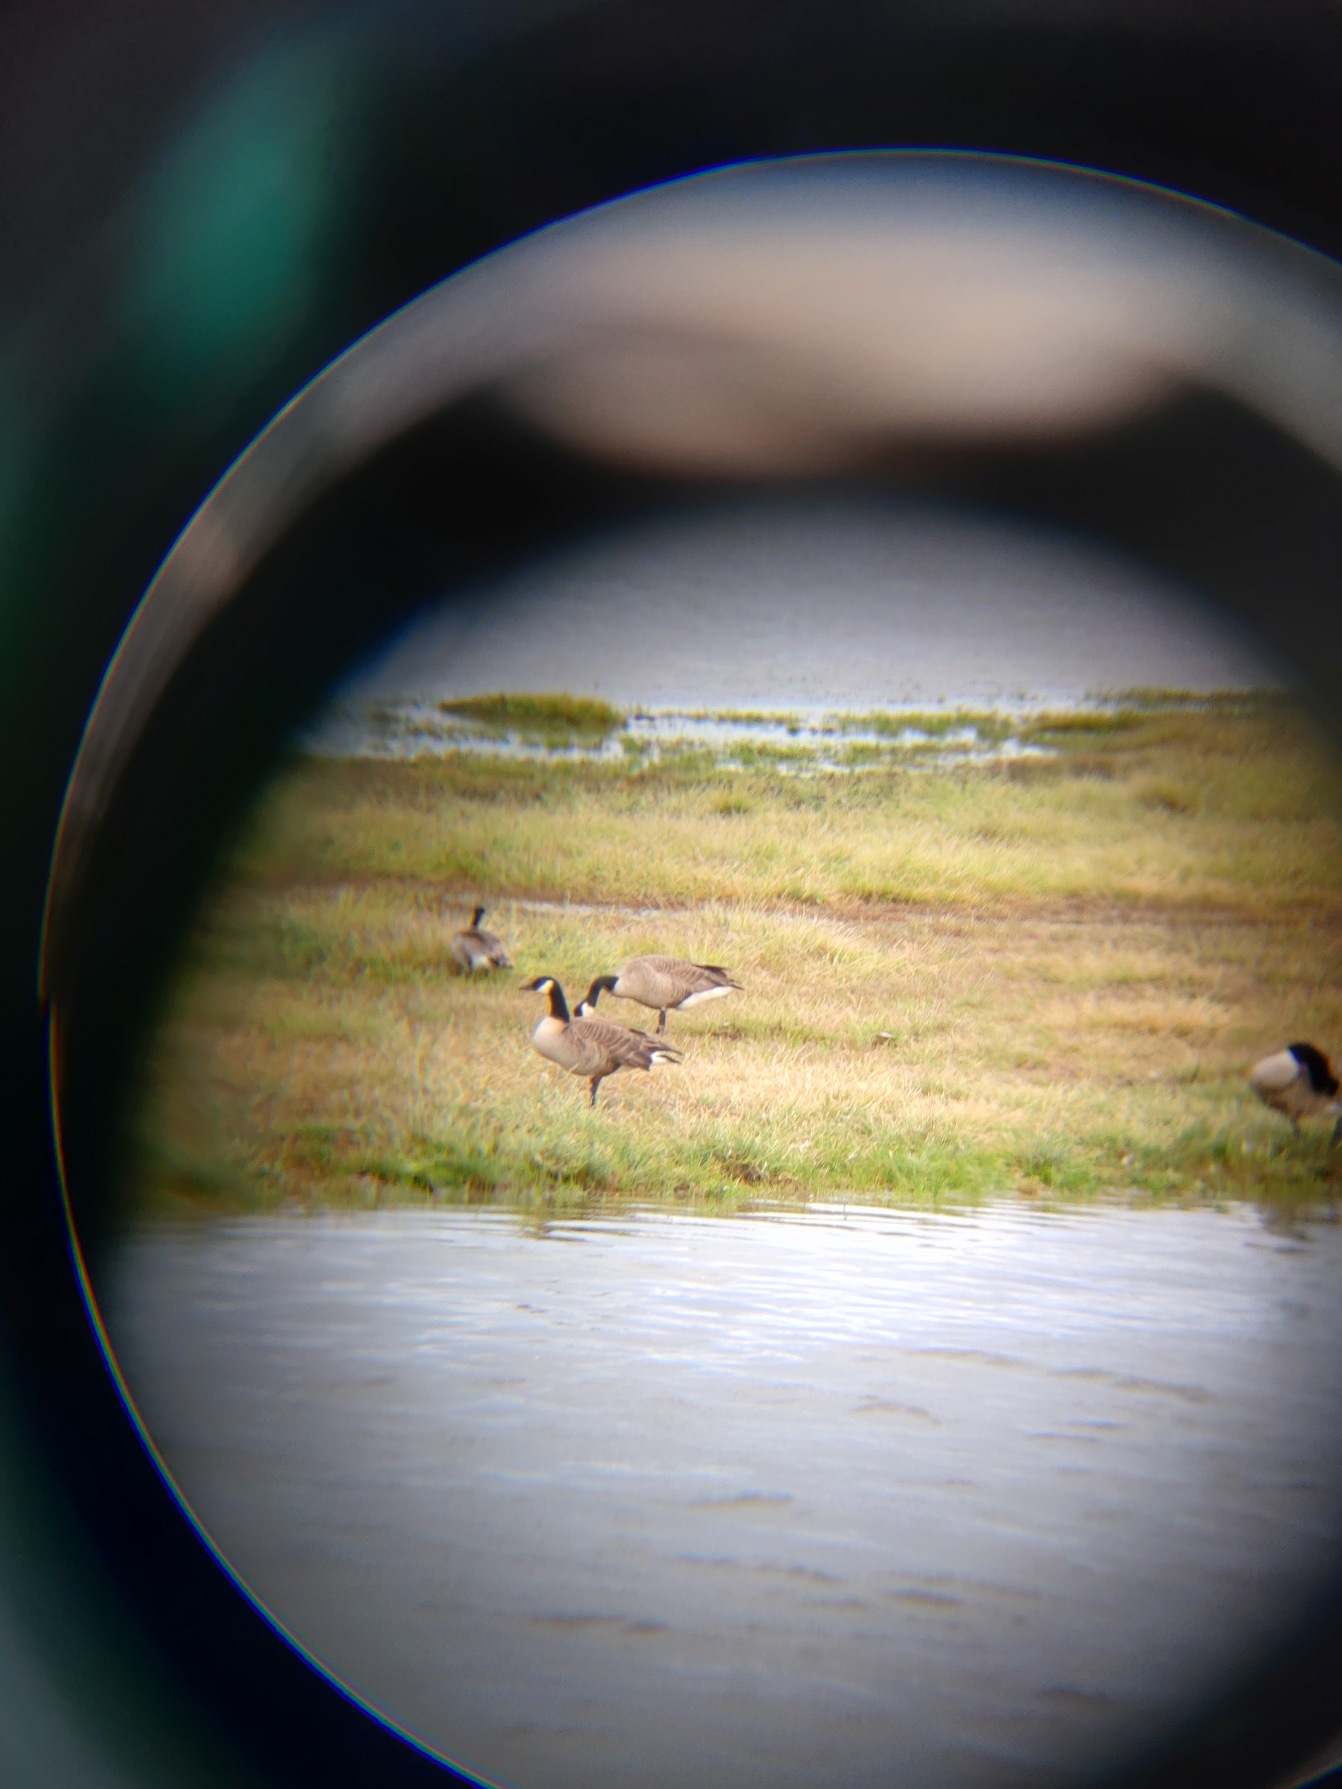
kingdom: Animalia
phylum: Chordata
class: Aves
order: Anseriformes
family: Anatidae
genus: Branta
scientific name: Branta canadensis
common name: Canadagås
